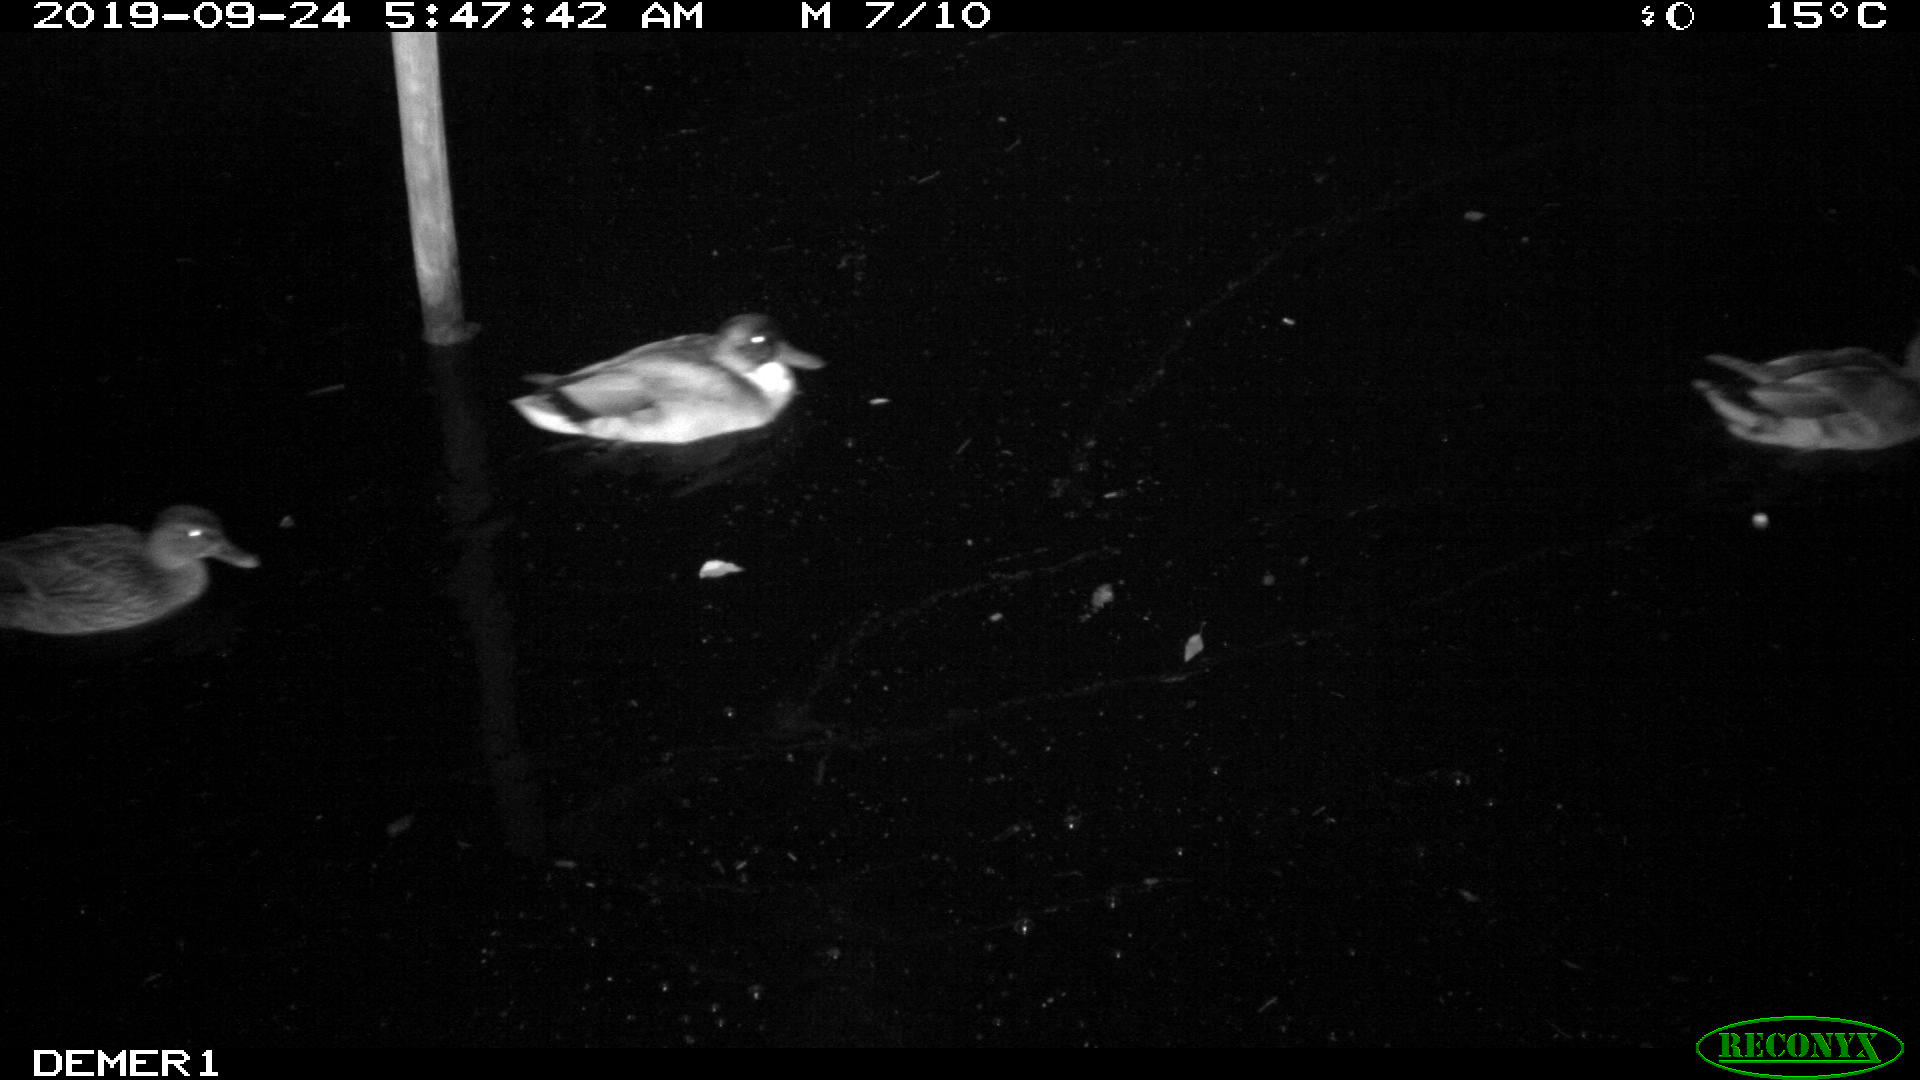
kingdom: Animalia
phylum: Chordata
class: Aves
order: Anseriformes
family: Anatidae
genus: Anas
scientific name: Anas platyrhynchos
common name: Mallard
